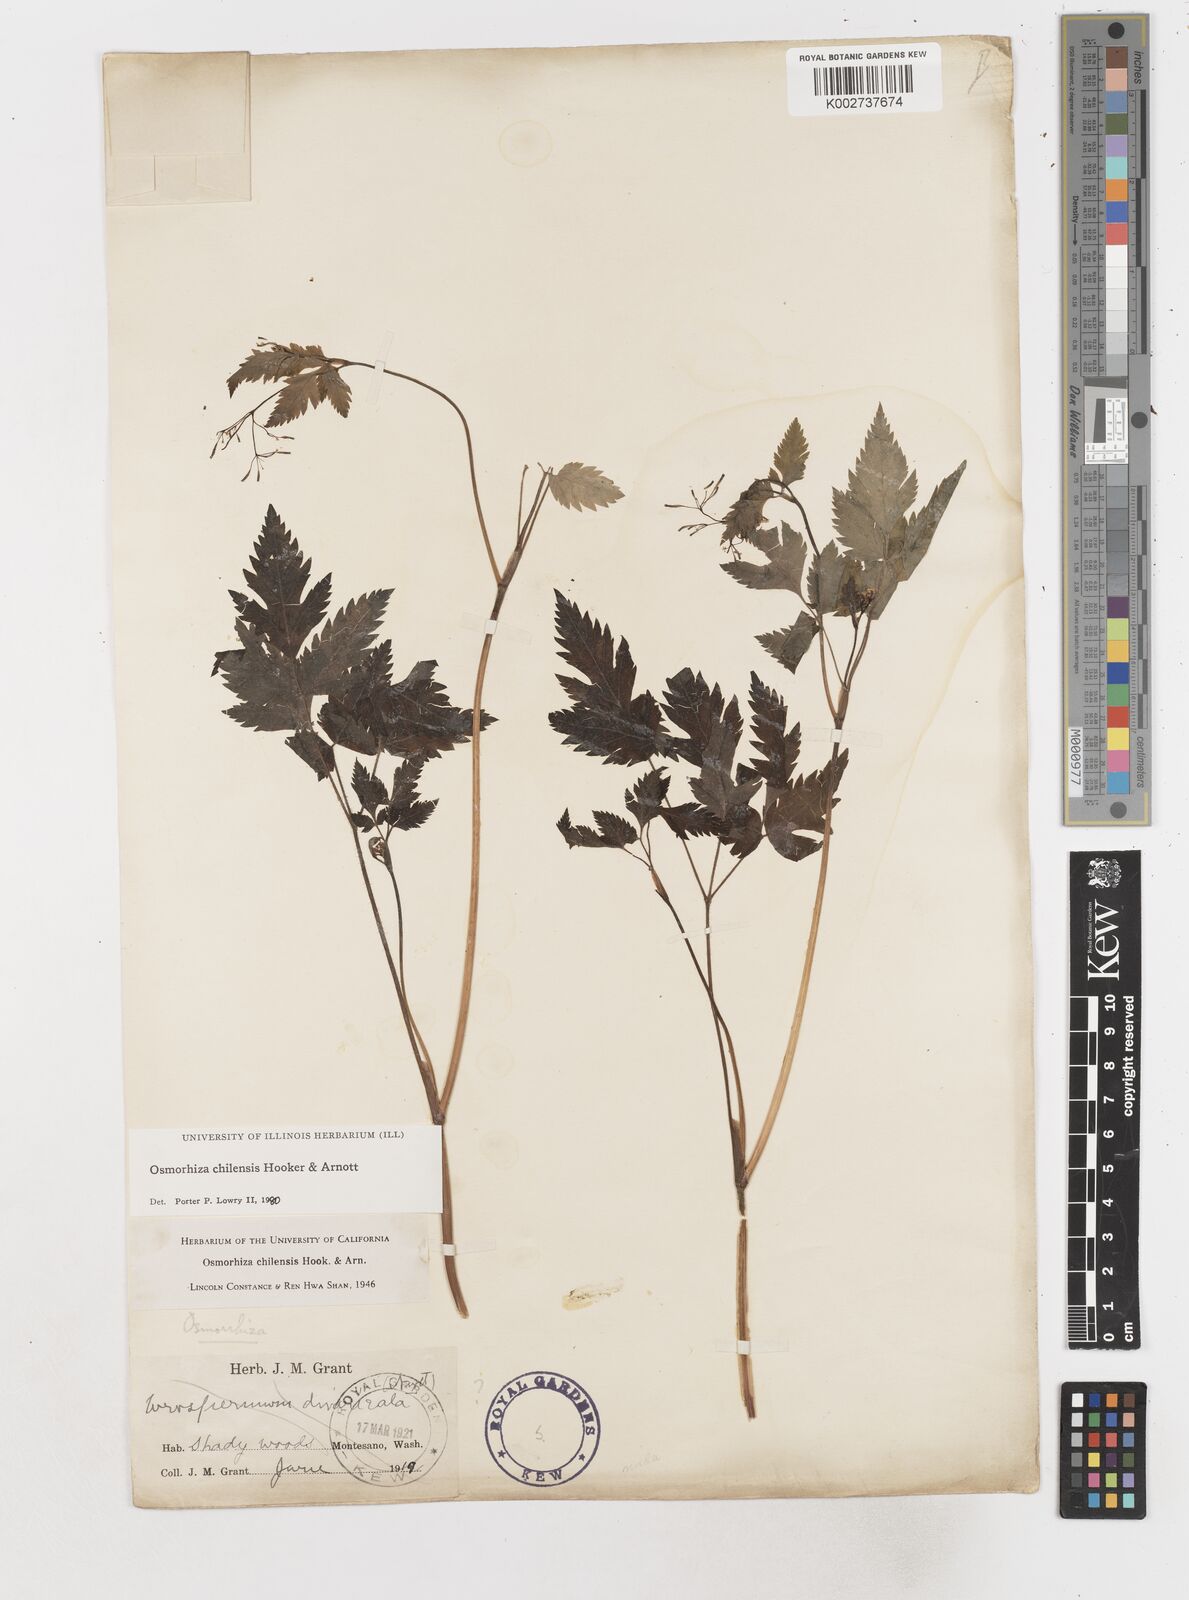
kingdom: Plantae
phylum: Tracheophyta
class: Magnoliopsida
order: Apiales
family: Apiaceae
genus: Osmorhiza
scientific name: Osmorhiza berteroi
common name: Mountain sweet cicely
